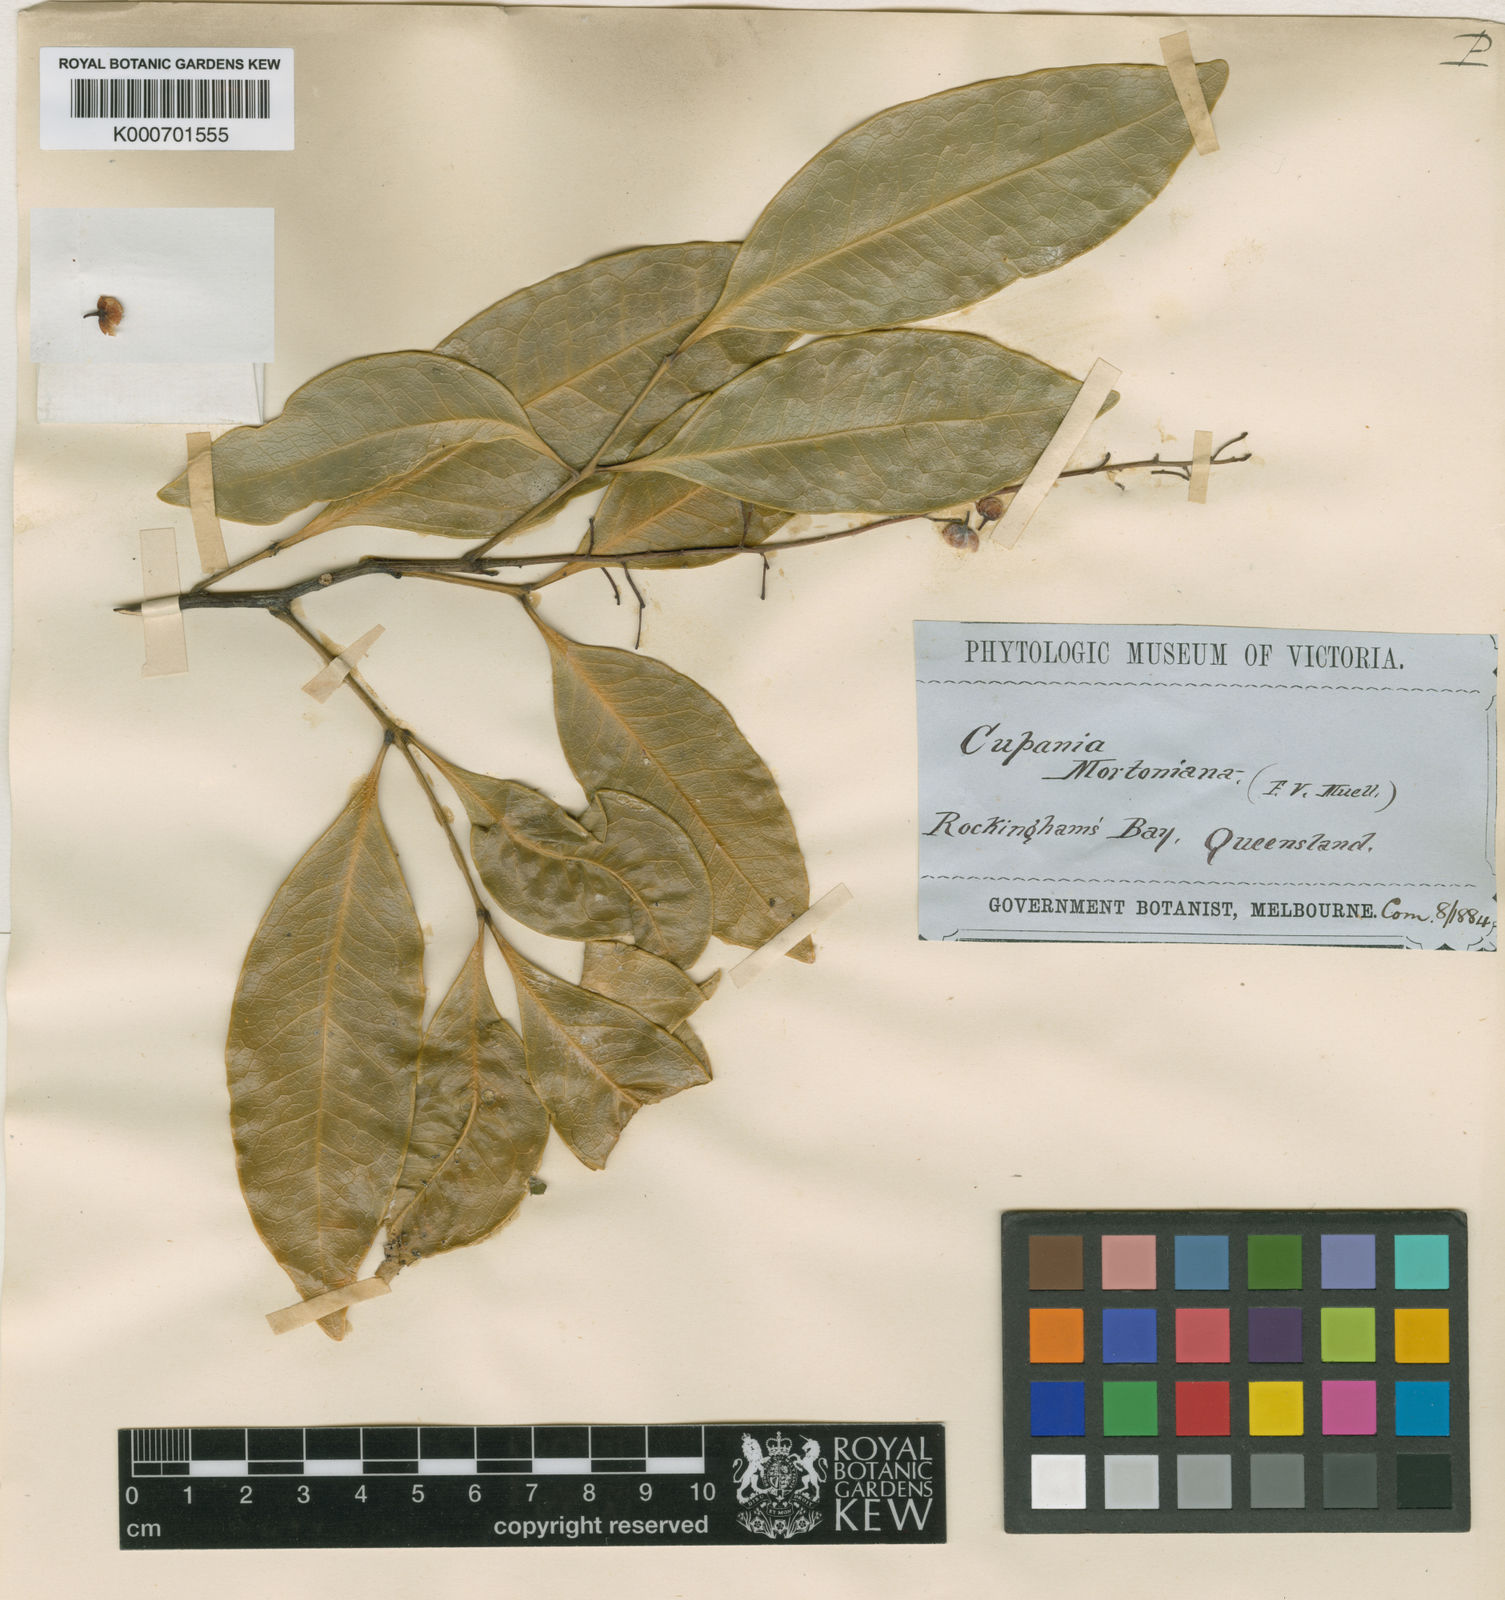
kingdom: Plantae
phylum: Tracheophyta
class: Magnoliopsida
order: Sapindales
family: Sapindaceae
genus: Rhysotoechia
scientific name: Rhysotoechia mortoniana
